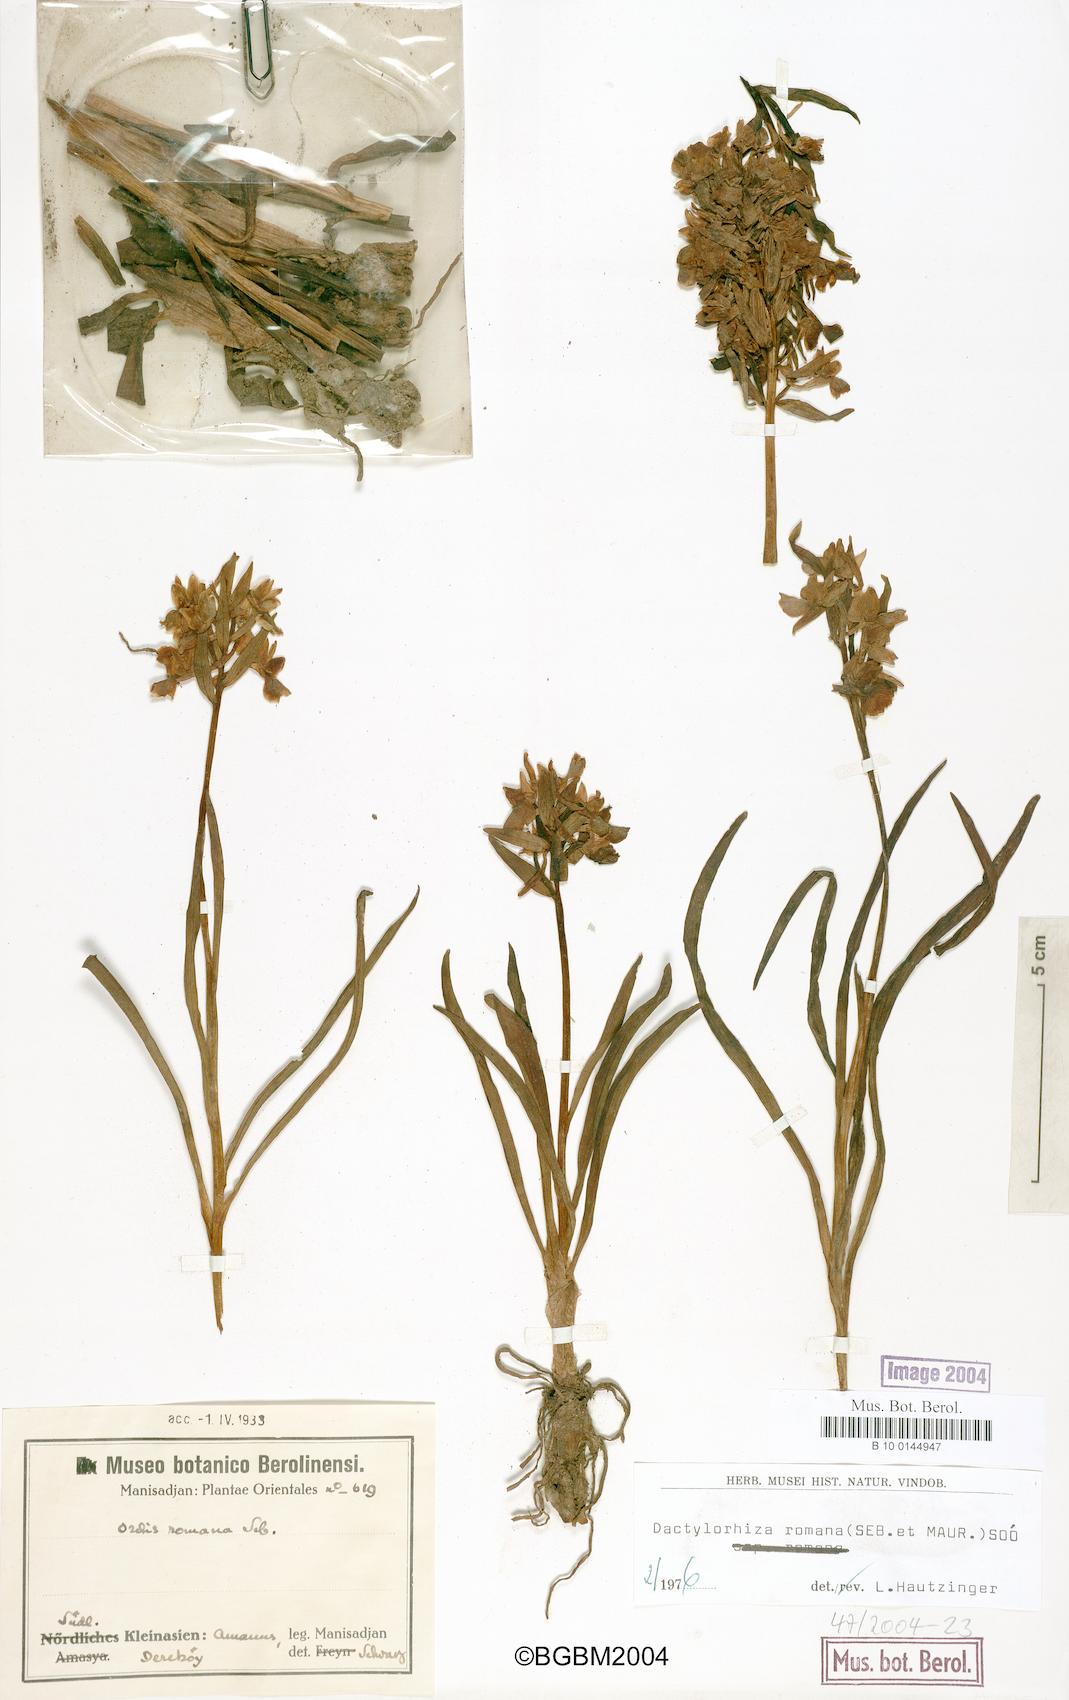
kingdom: Plantae
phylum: Tracheophyta
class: Liliopsida
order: Asparagales
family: Orchidaceae
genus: Dactylorhiza
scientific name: Dactylorhiza romana
